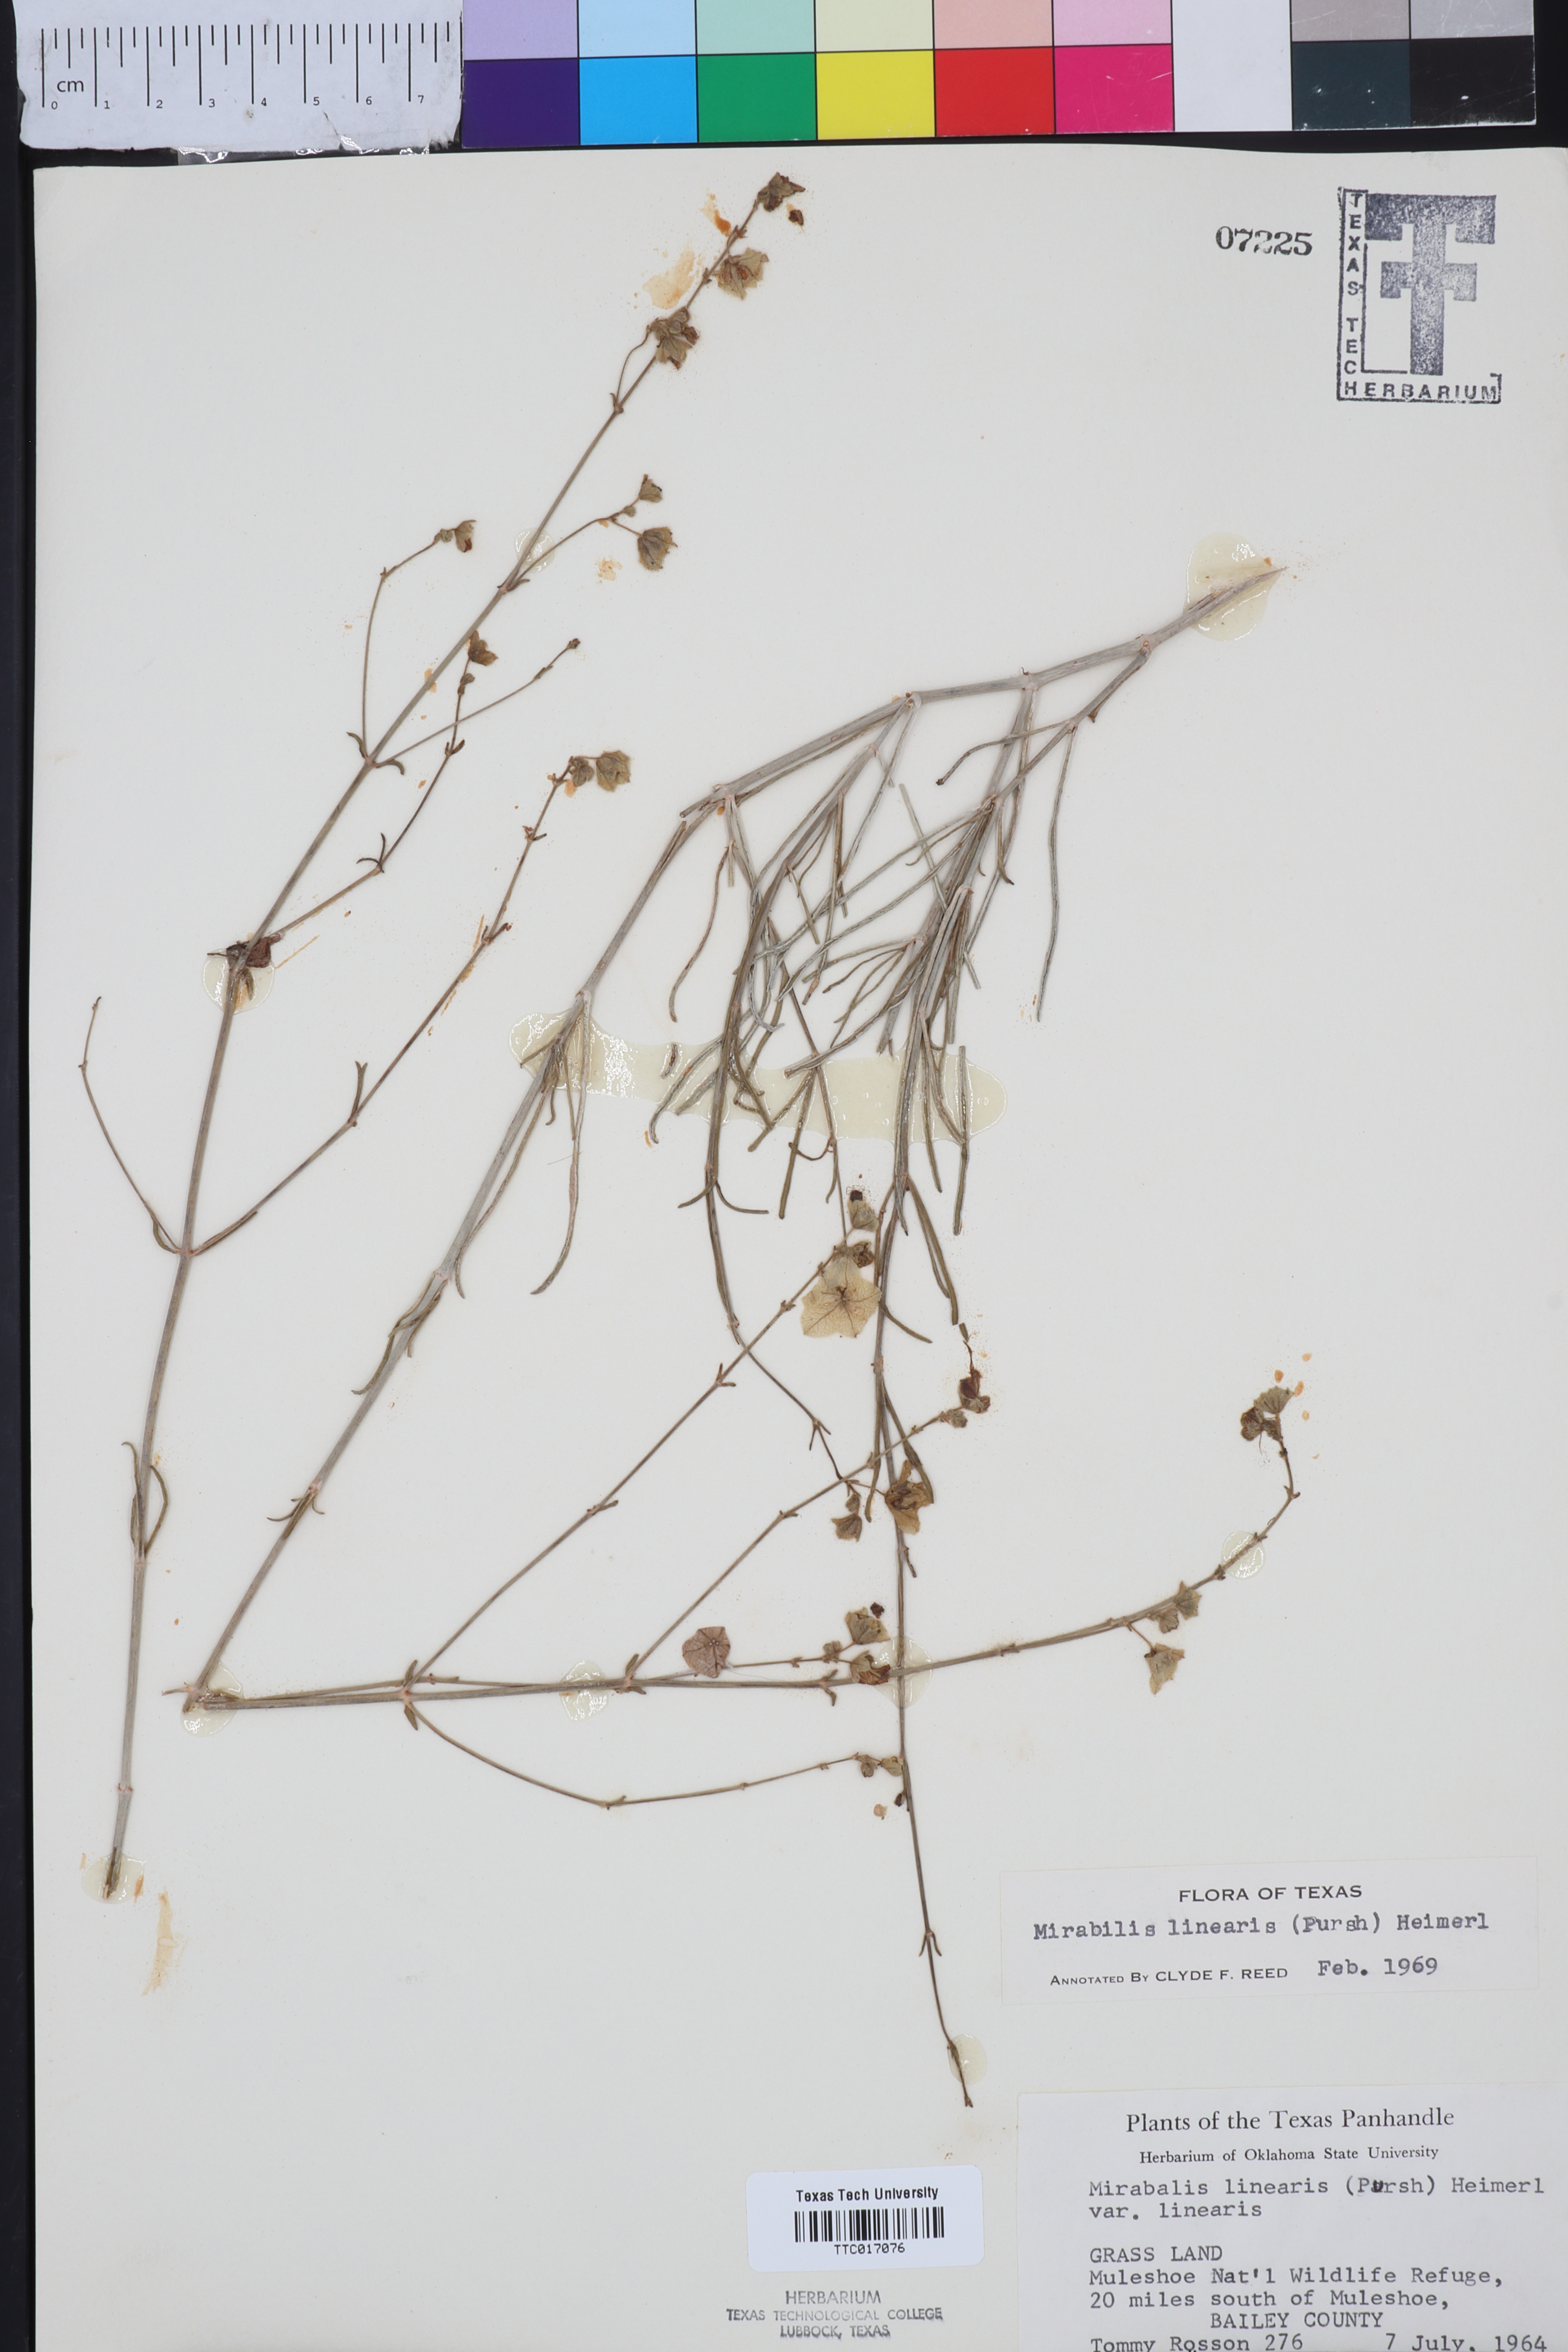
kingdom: Plantae
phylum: Tracheophyta
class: Magnoliopsida
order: Caryophyllales
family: Nyctaginaceae
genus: Mirabilis
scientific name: Mirabilis linearis
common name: Linear-leaved four-o'clock
